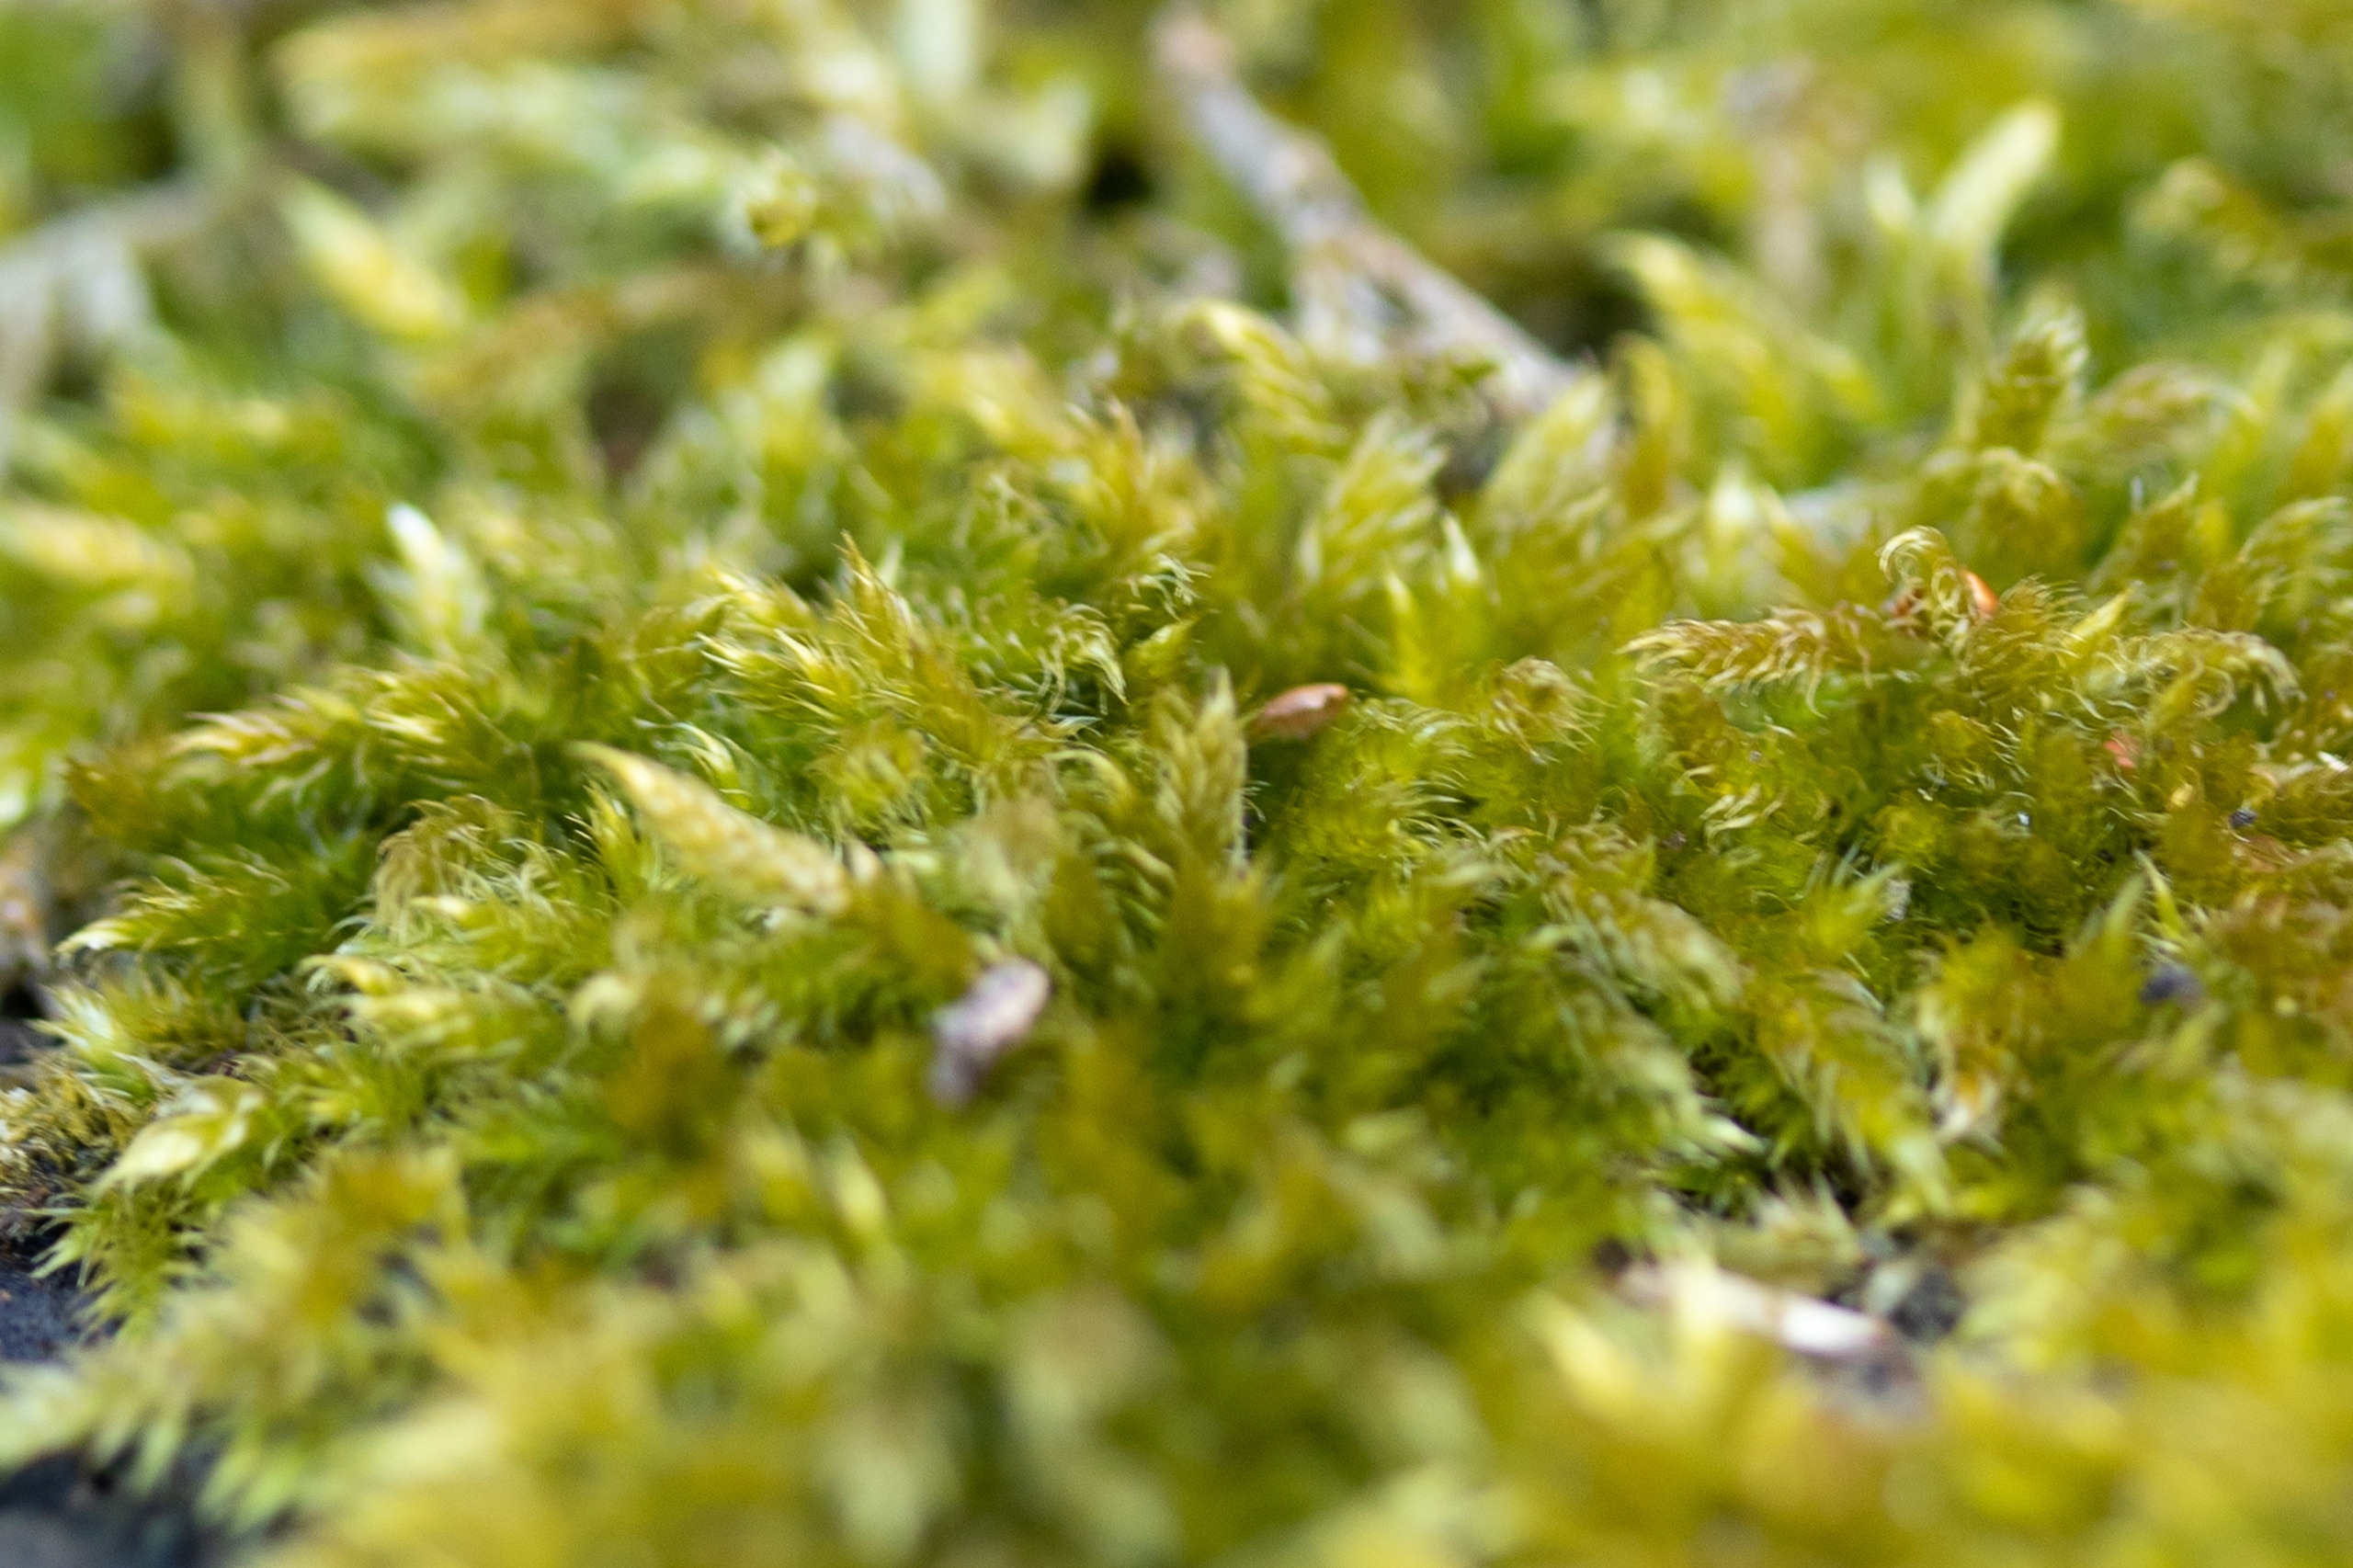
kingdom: Plantae
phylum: Bryophyta
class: Bryopsida
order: Hypnales
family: Hypnaceae
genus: Hypnum
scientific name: Hypnum cupressiforme
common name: Almindelig cypresmos
